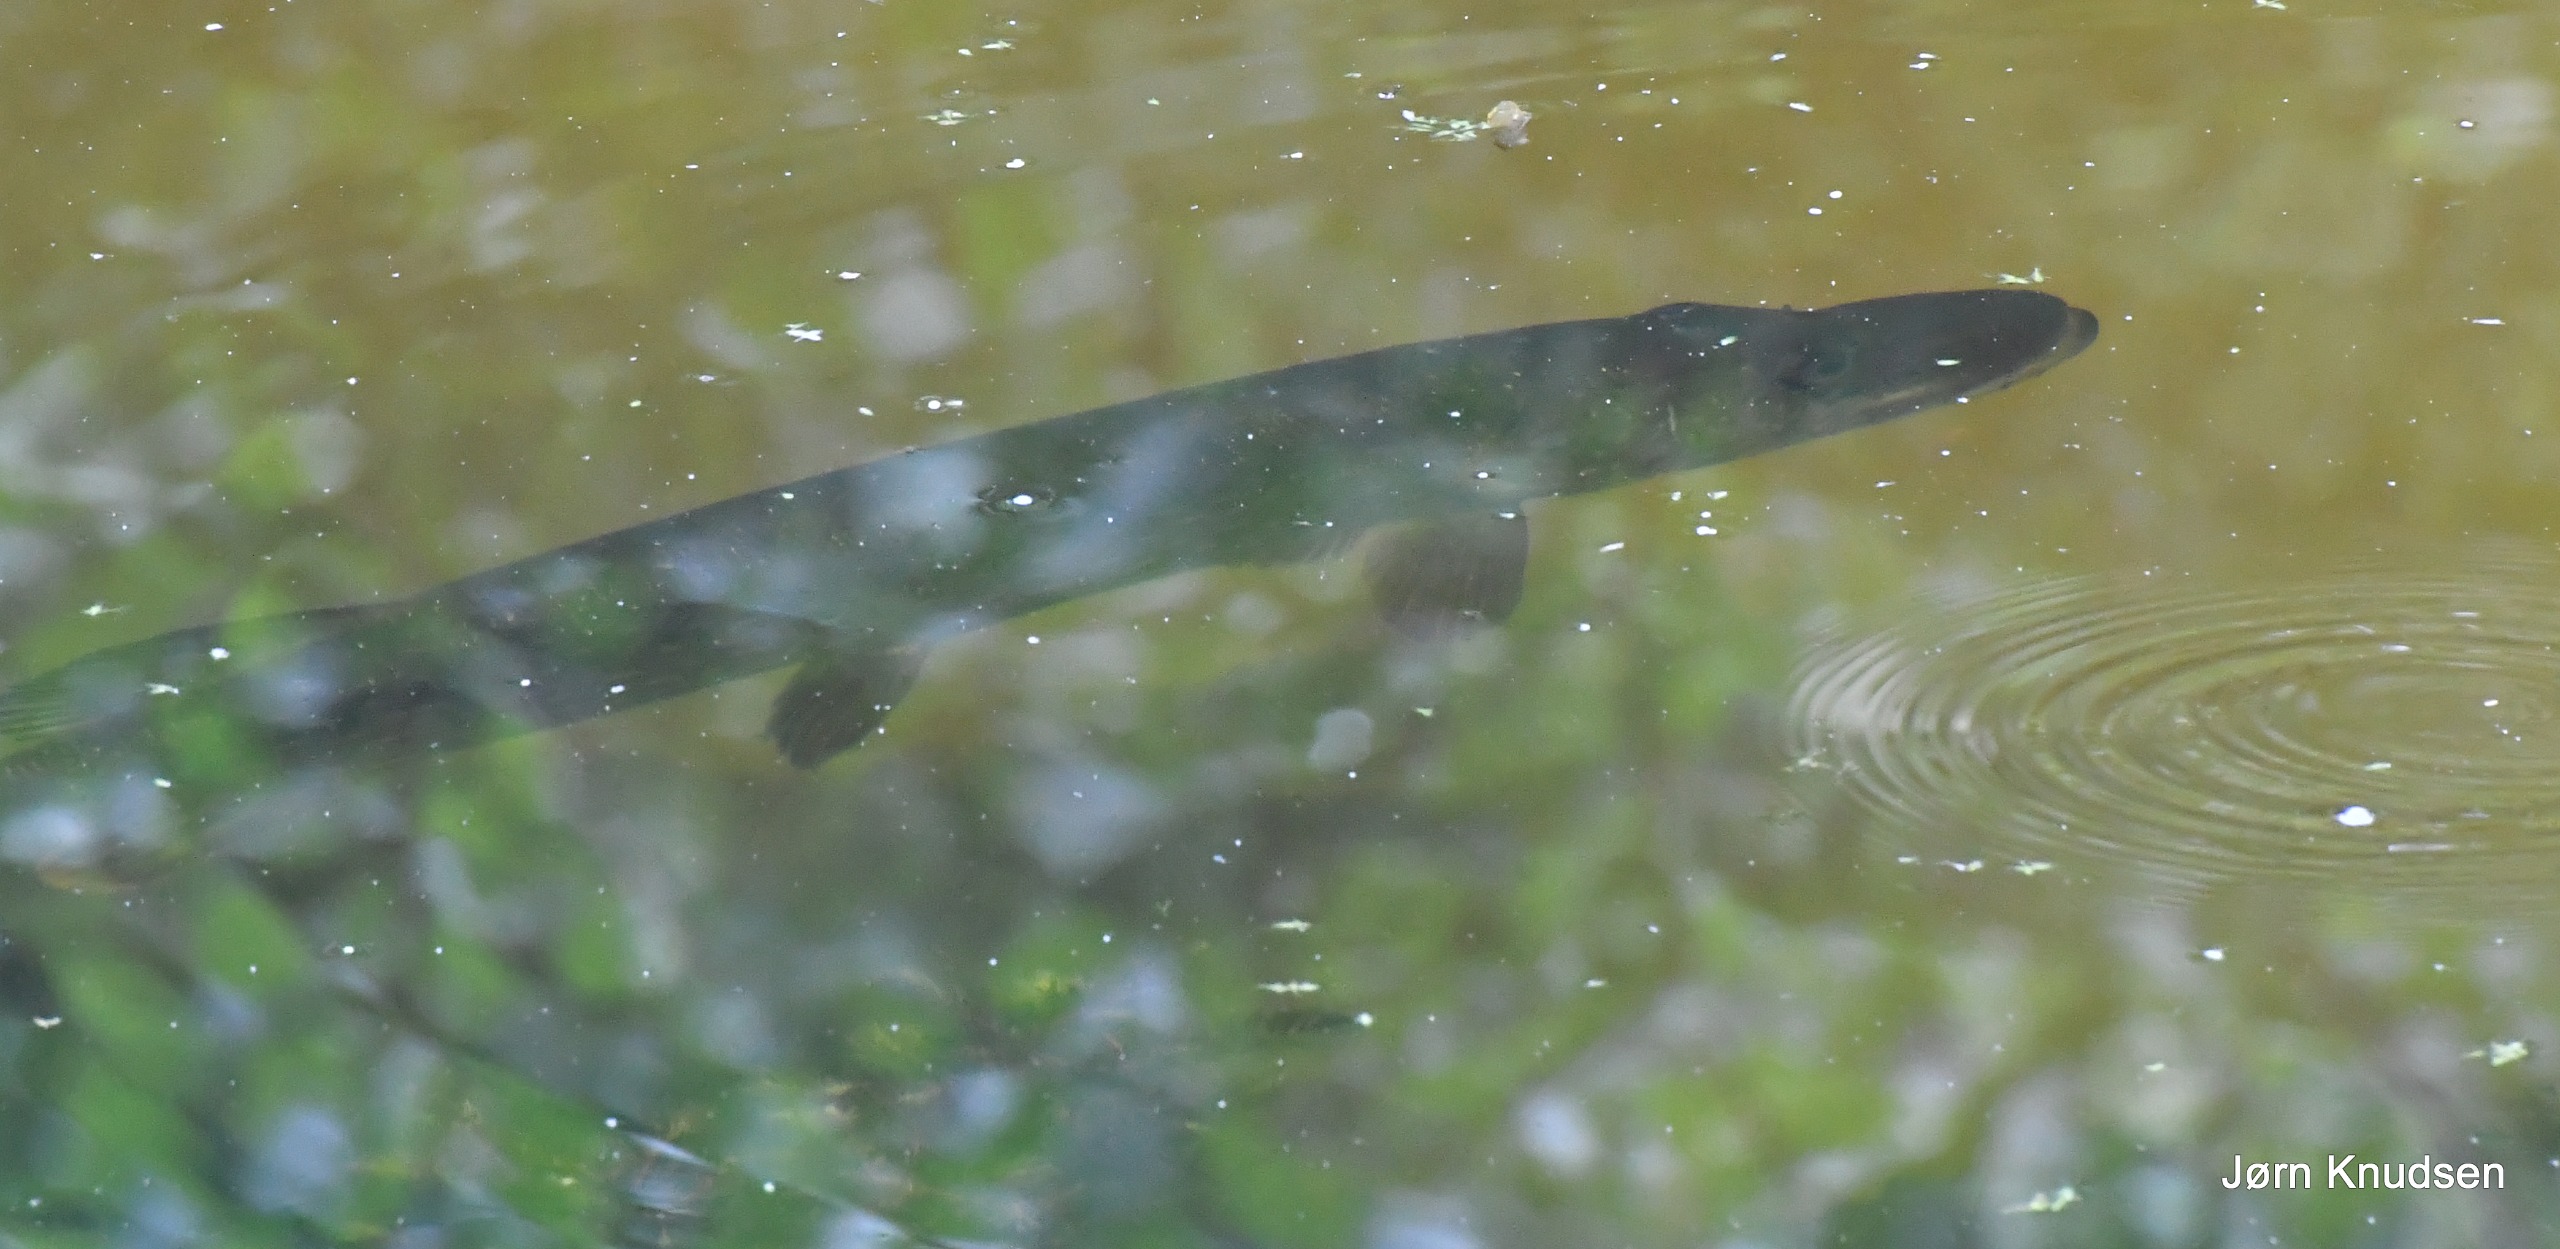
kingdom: Animalia
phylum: Chordata
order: Esociformes
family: Esocidae
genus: Esox
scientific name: Esox lucius
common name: Gedde
